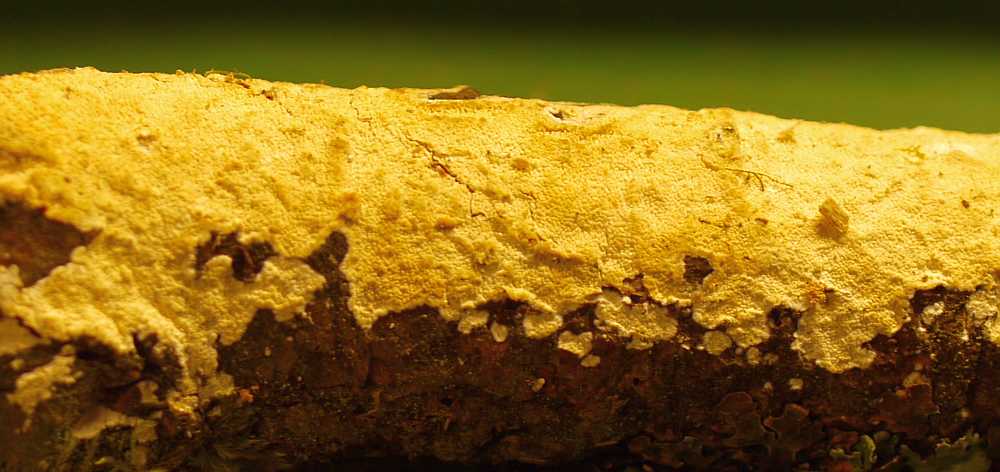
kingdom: Fungi
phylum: Basidiomycota
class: Agaricomycetes
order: Corticiales
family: Corticiaceae
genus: Lyomyces
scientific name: Lyomyces crustosus
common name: vortet hyldehinde
